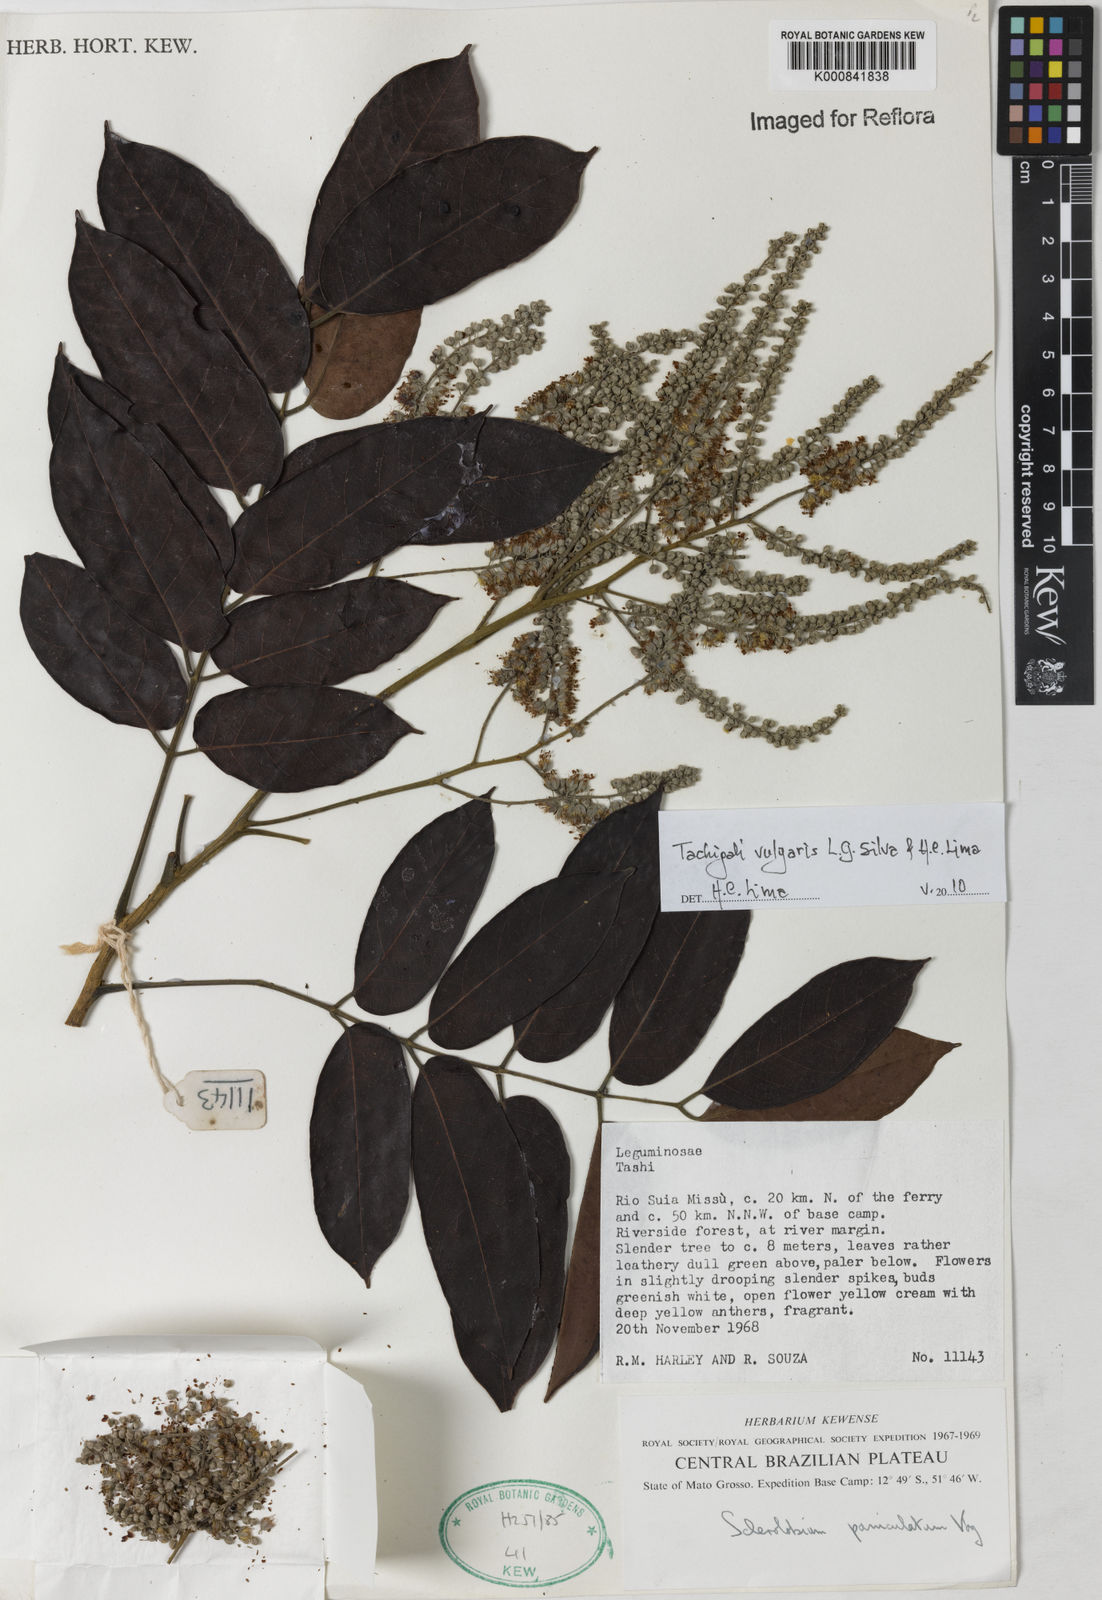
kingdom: Plantae
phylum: Tracheophyta
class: Magnoliopsida
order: Fabales
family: Fabaceae
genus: Tachigali
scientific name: Tachigali vulgaris
